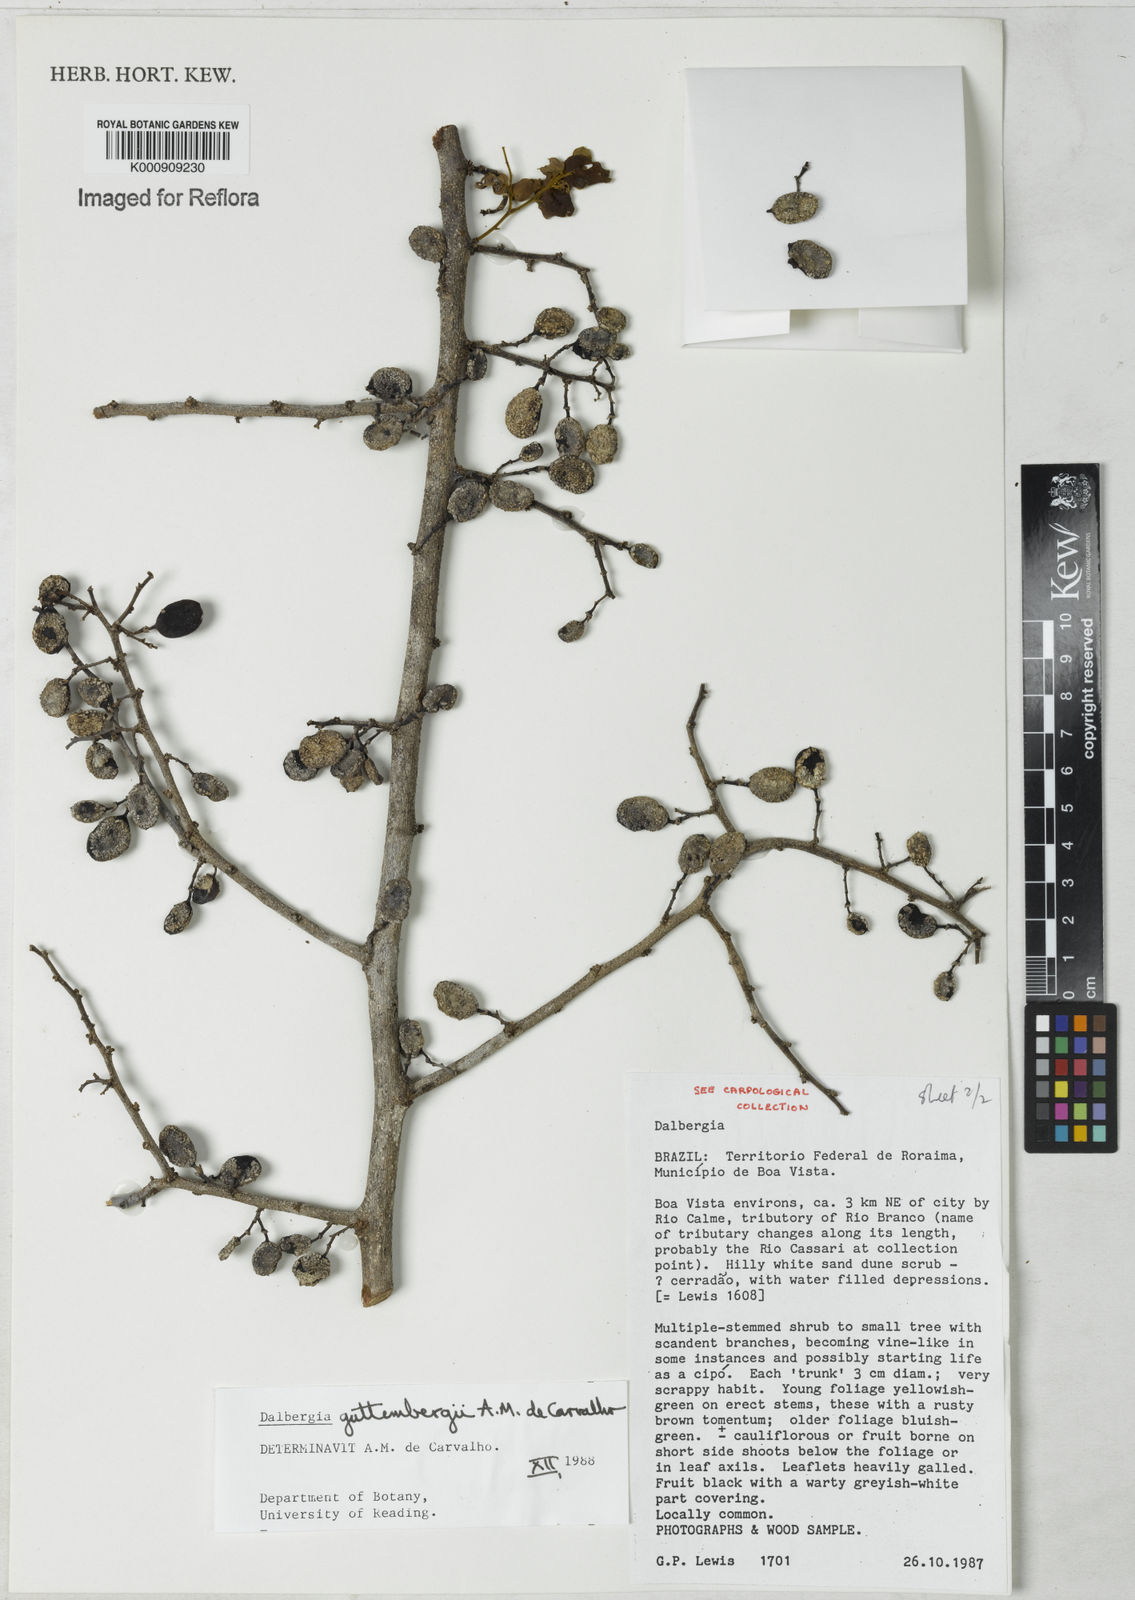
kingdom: Plantae
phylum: Tracheophyta
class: Magnoliopsida
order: Fabales
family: Fabaceae
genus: Dalbergia
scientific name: Dalbergia guttembergii
